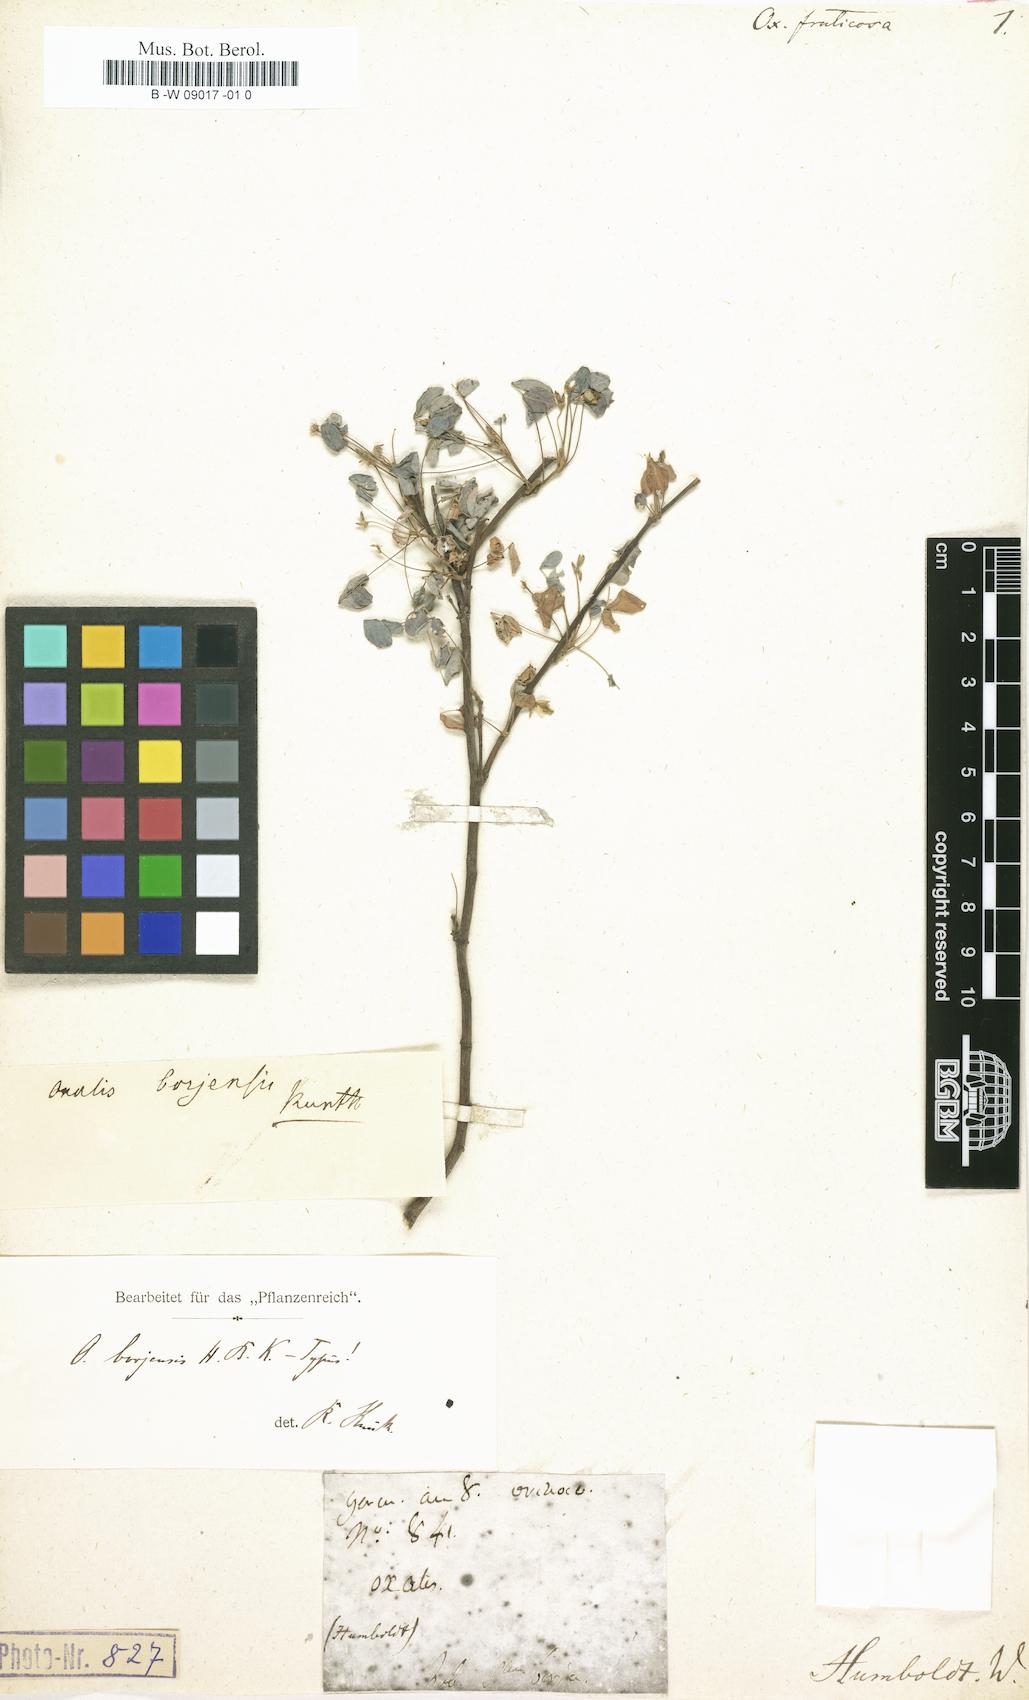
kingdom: Plantae
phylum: Tracheophyta
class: Magnoliopsida
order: Oxalidales
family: Oxalidaceae
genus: Oxalis
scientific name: Oxalis frutescens
